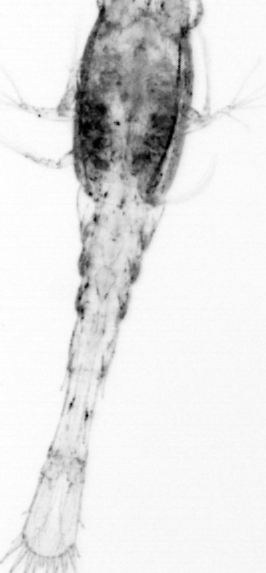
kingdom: Animalia
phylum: Arthropoda
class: Copepoda
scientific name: Copepoda
